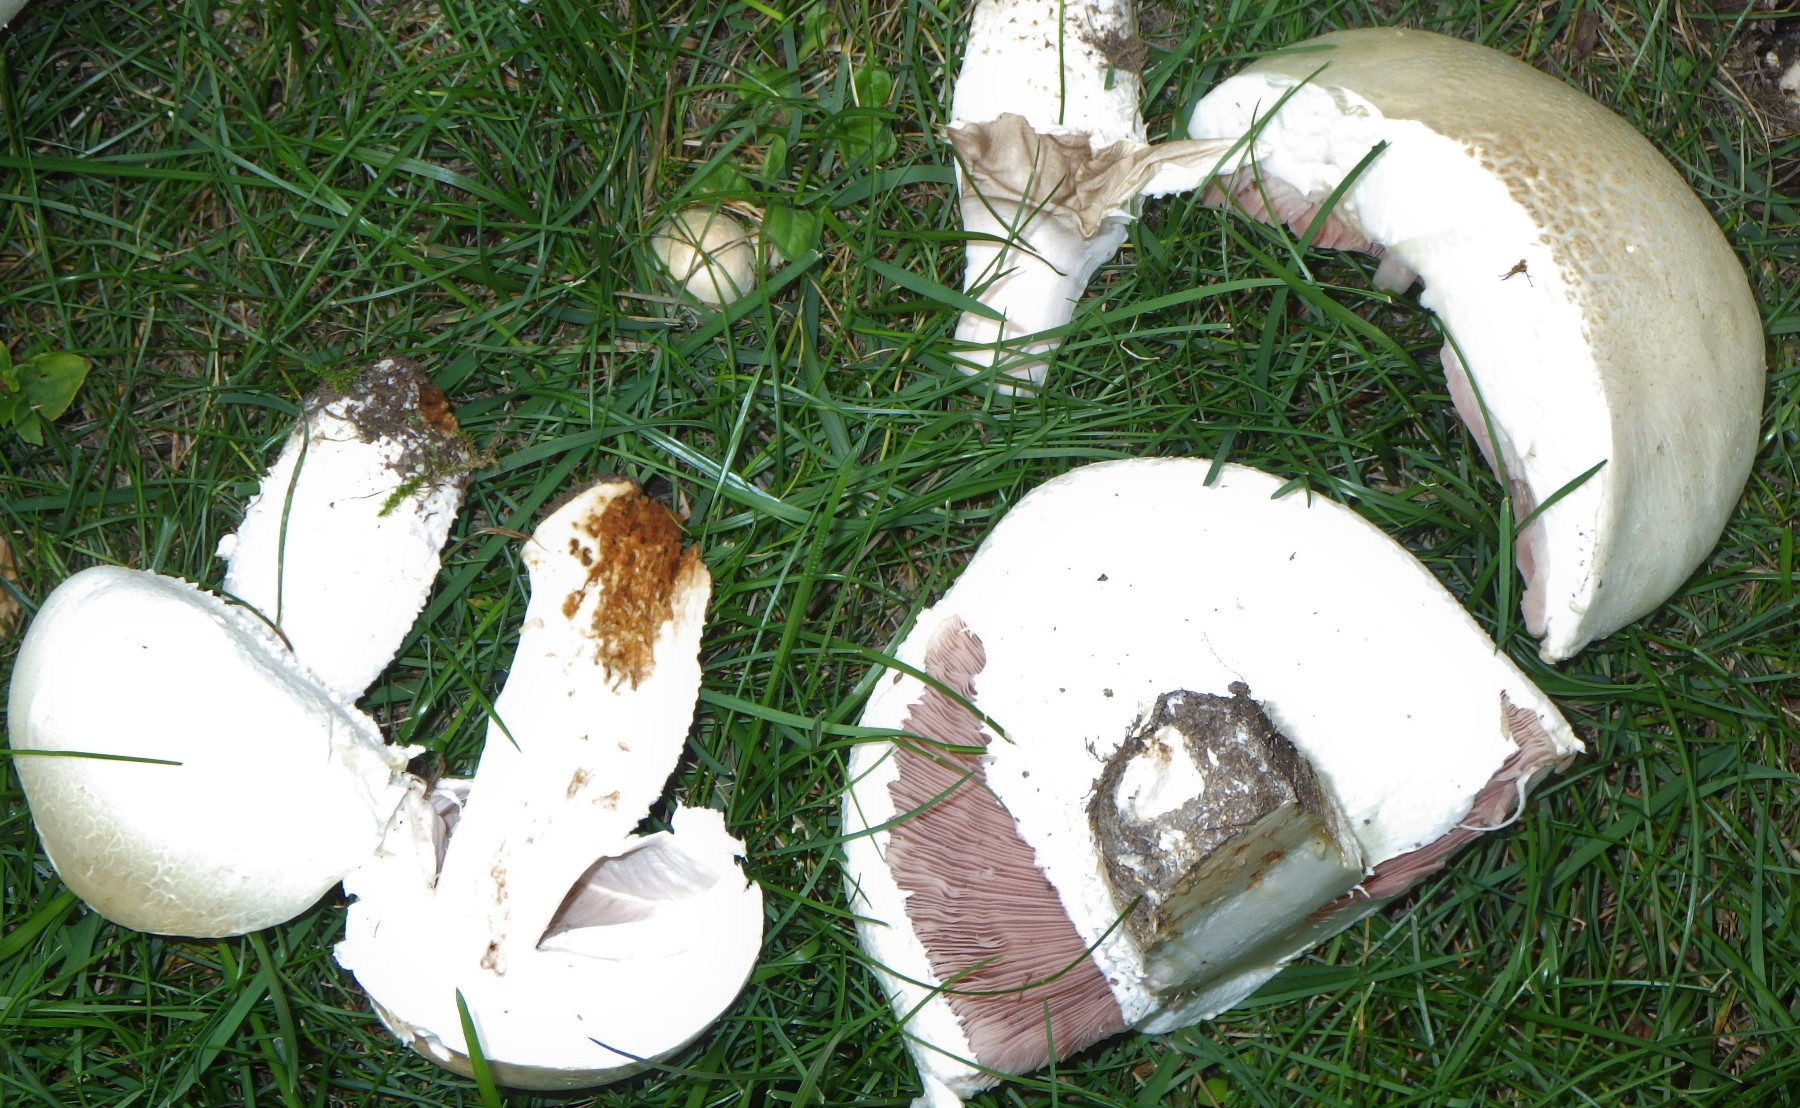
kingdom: Fungi
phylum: Basidiomycota
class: Agaricomycetes
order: Agaricales
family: Agaricaceae
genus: Agaricus
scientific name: Agaricus crocodilinus
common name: landsby-champignon
